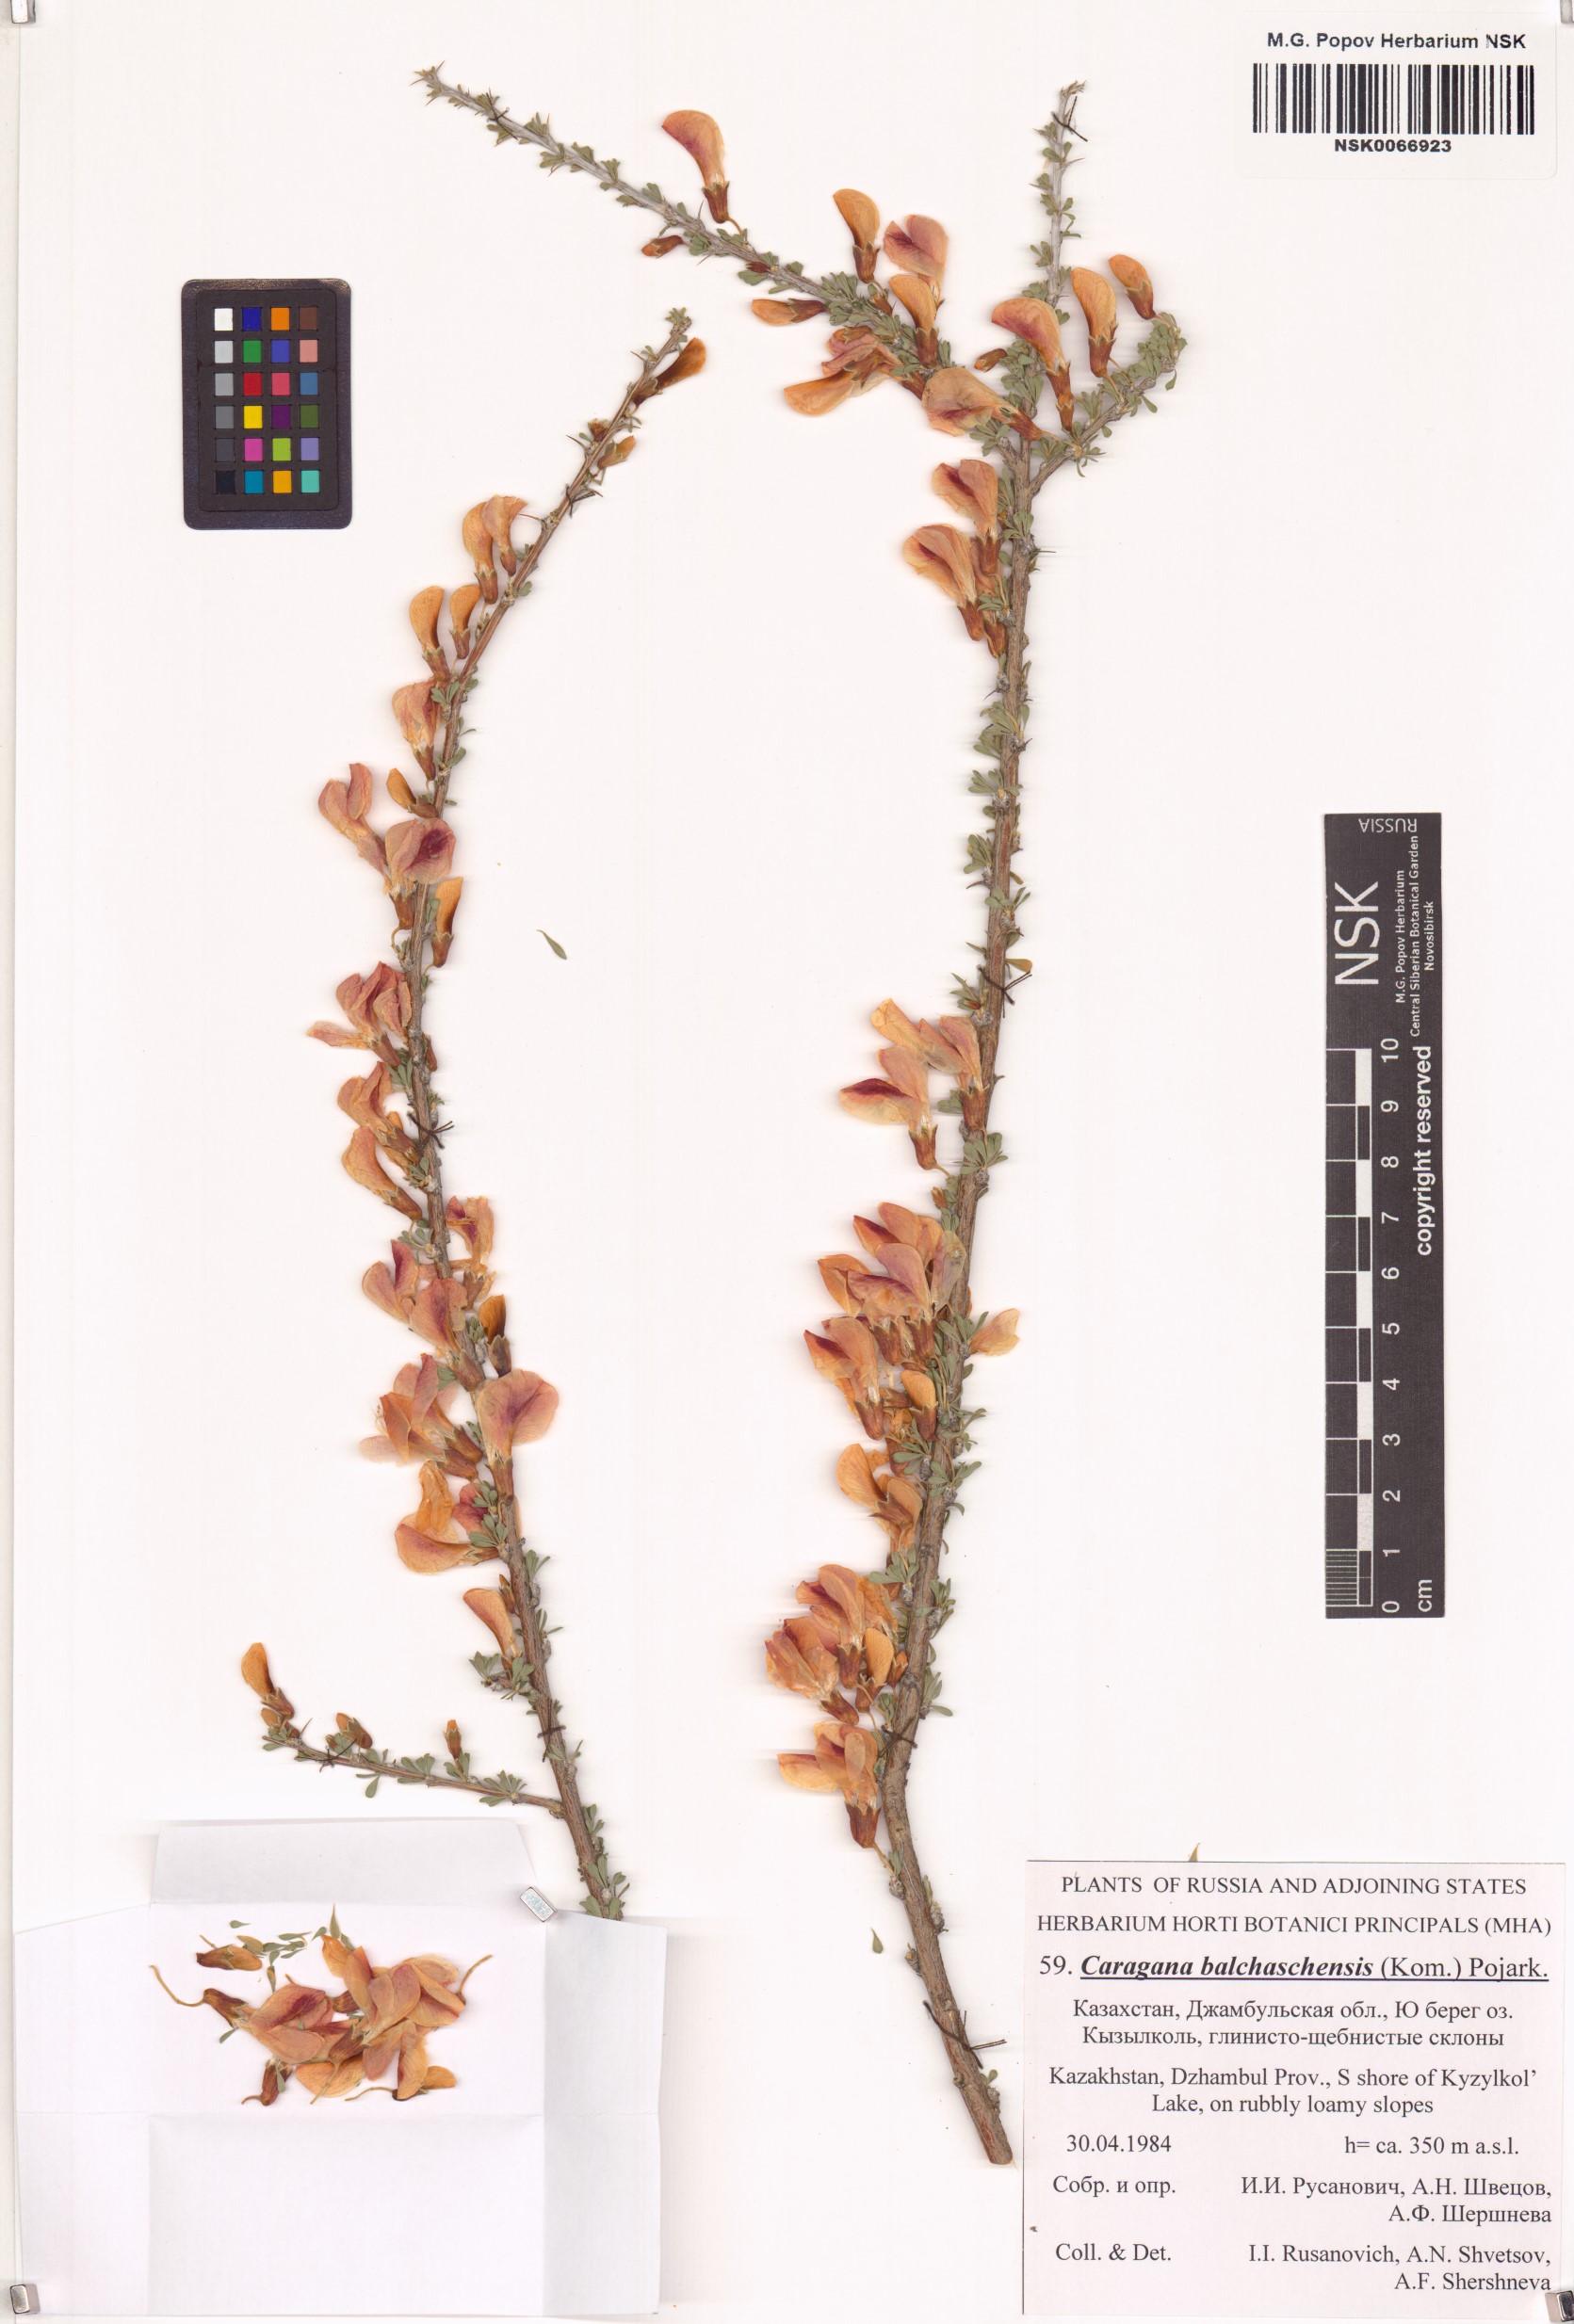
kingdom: Plantae
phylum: Tracheophyta
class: Magnoliopsida
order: Fabales
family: Fabaceae
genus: Caragana
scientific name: Caragana balchaschensis
